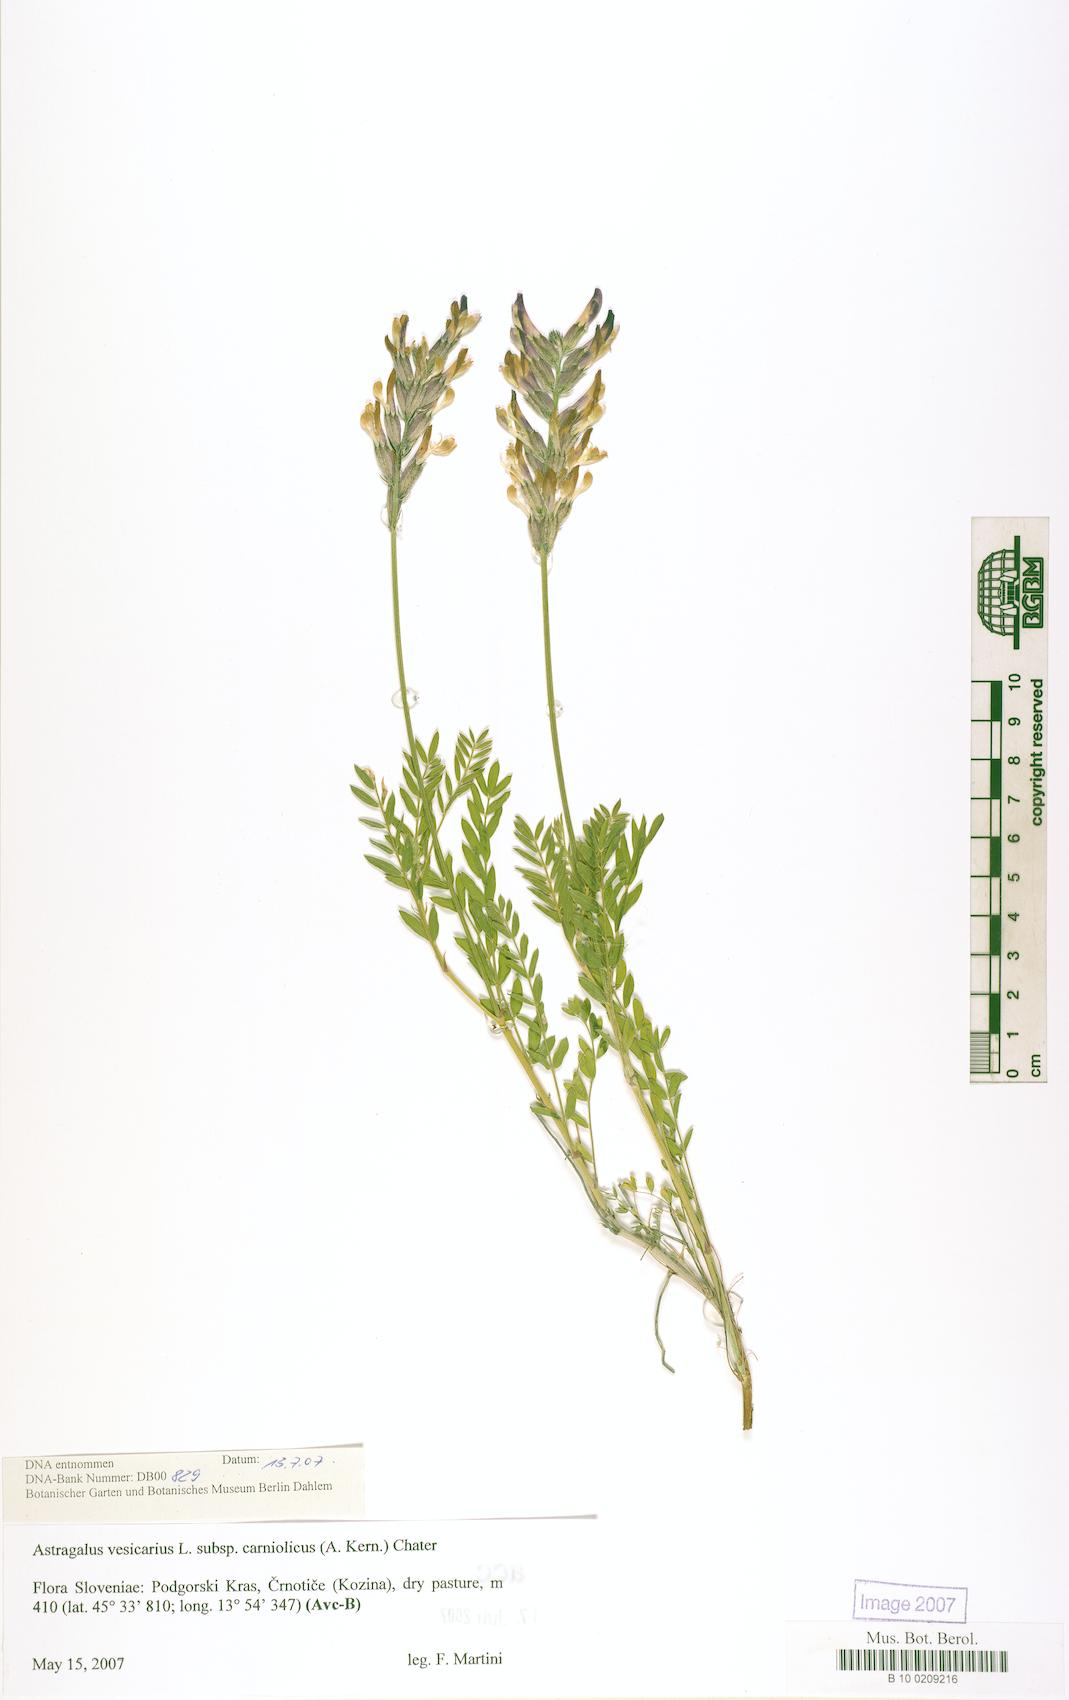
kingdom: Plantae
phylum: Tracheophyta
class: Magnoliopsida
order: Fabales
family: Fabaceae
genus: Astragalus
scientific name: Astragalus vesicarius
